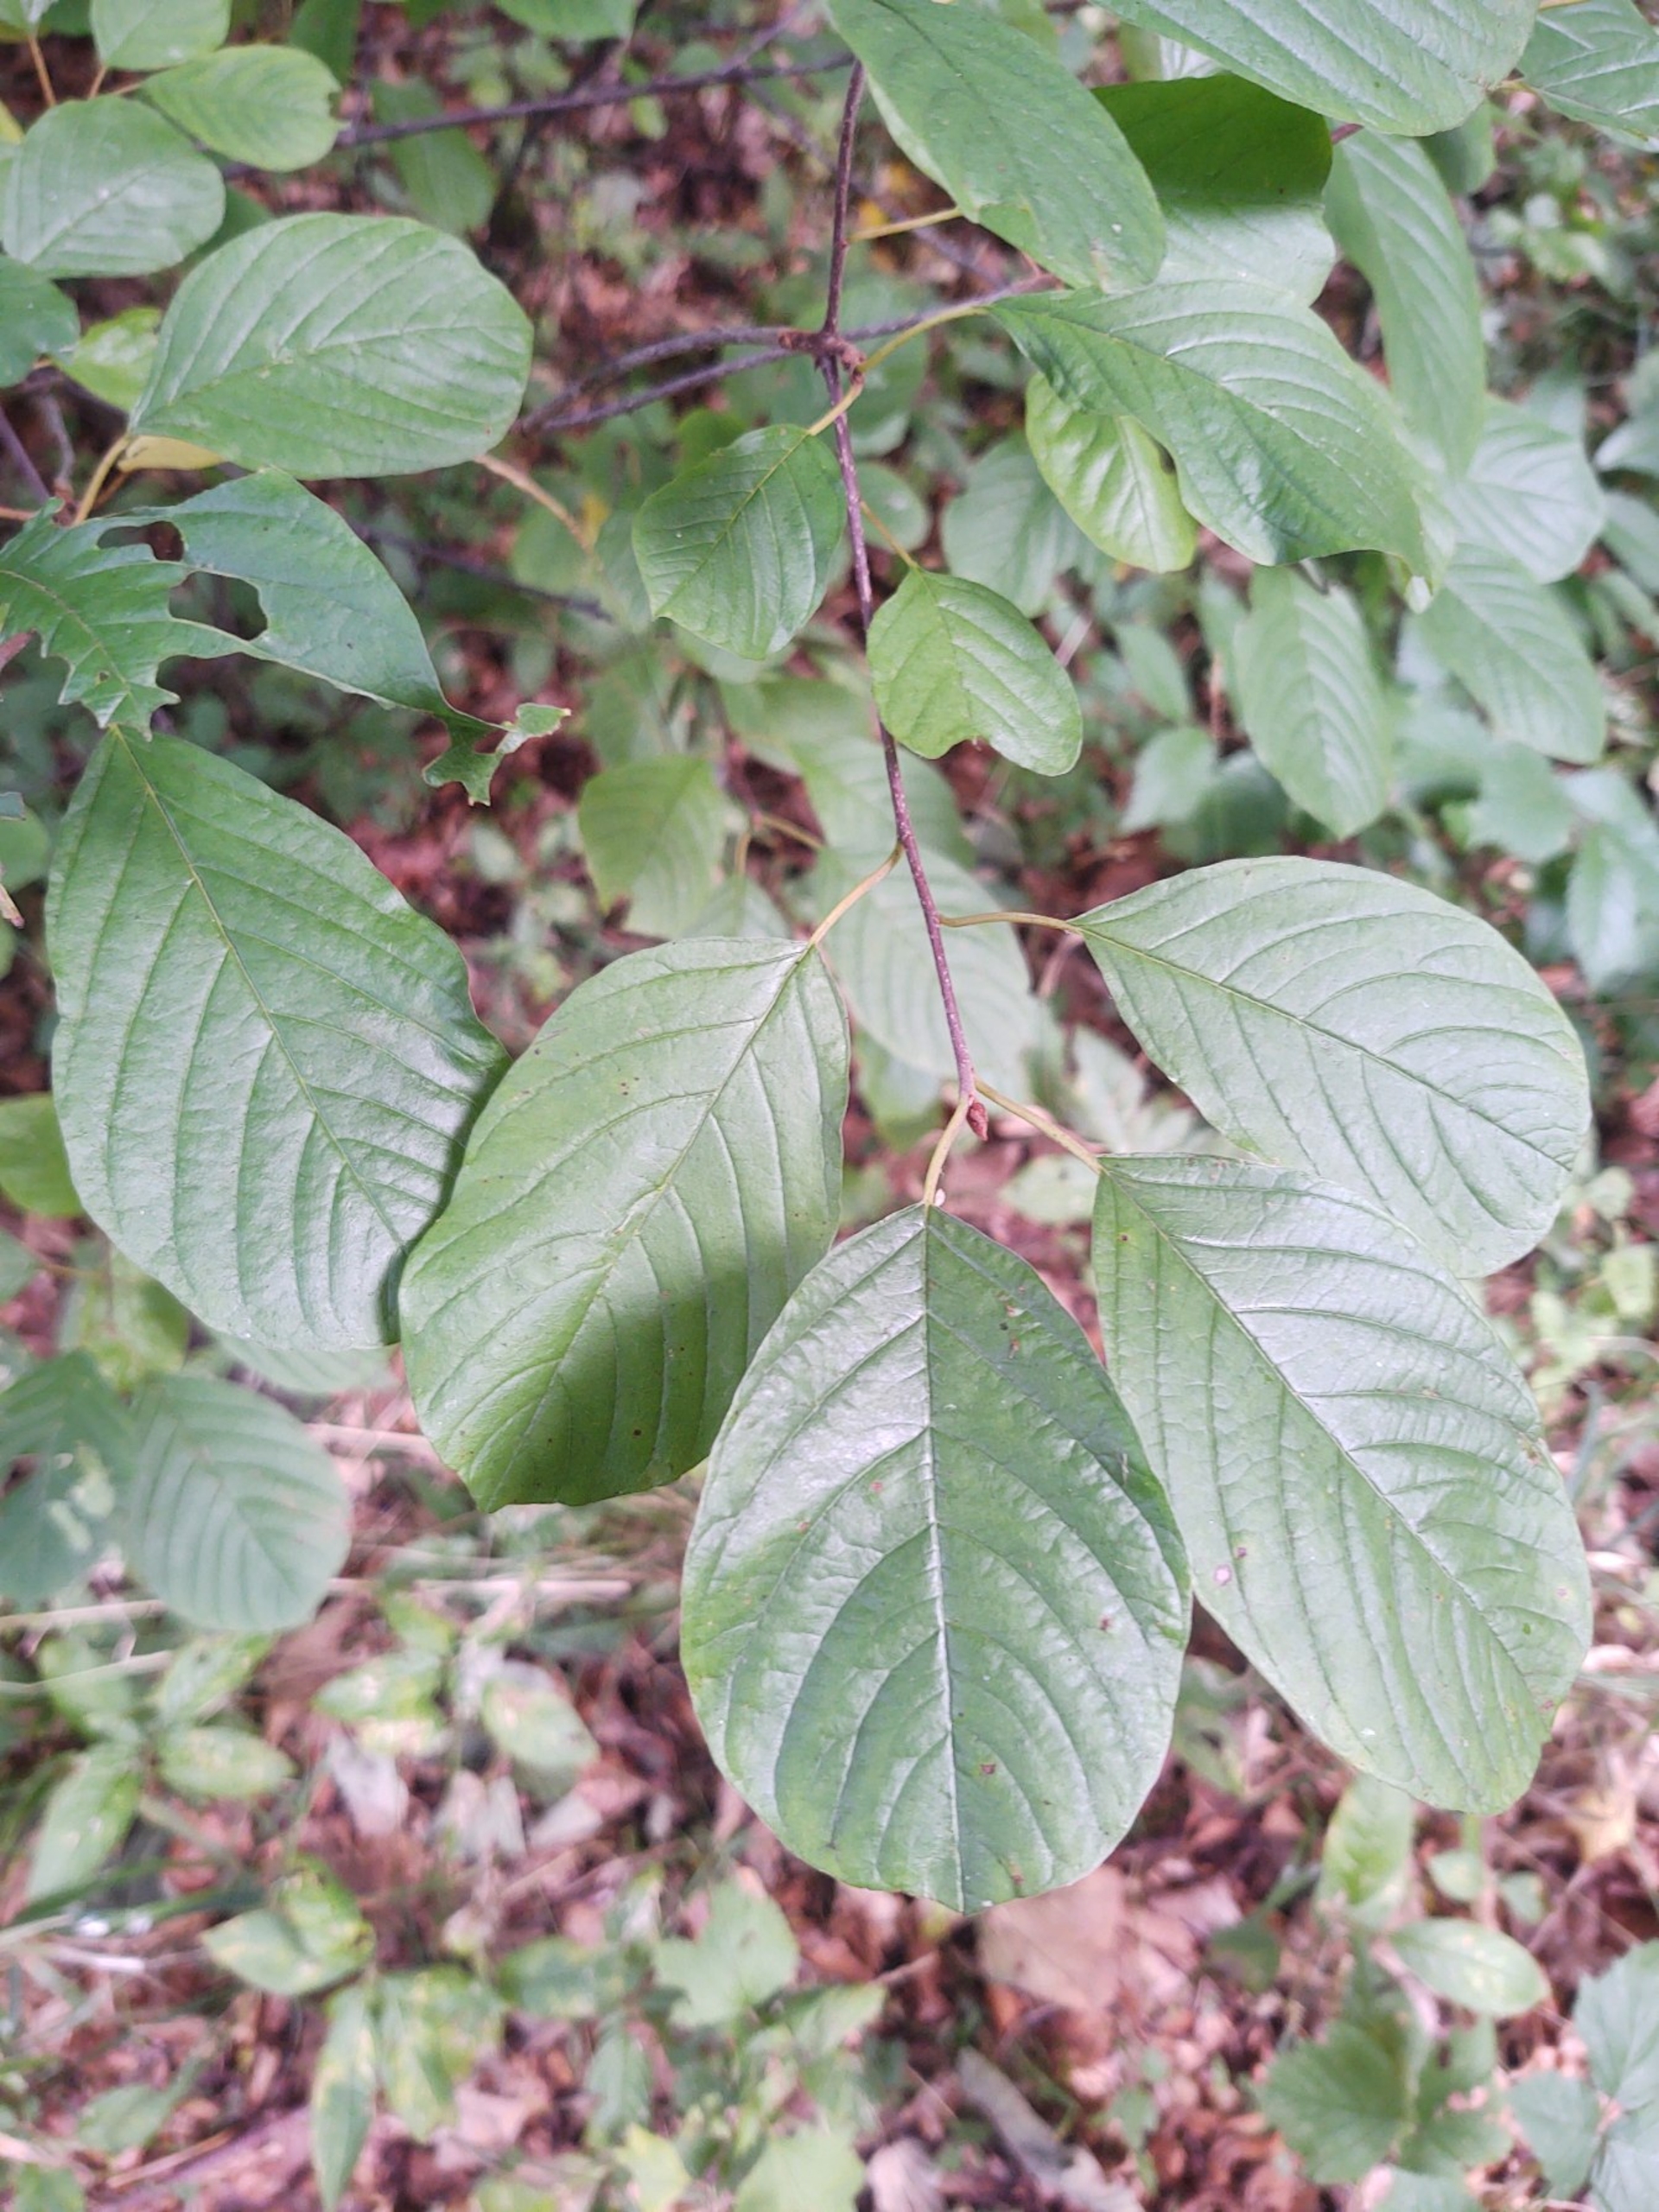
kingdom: Plantae
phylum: Tracheophyta
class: Magnoliopsida
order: Rosales
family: Rhamnaceae
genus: Frangula
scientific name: Frangula alnus
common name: Tørst
